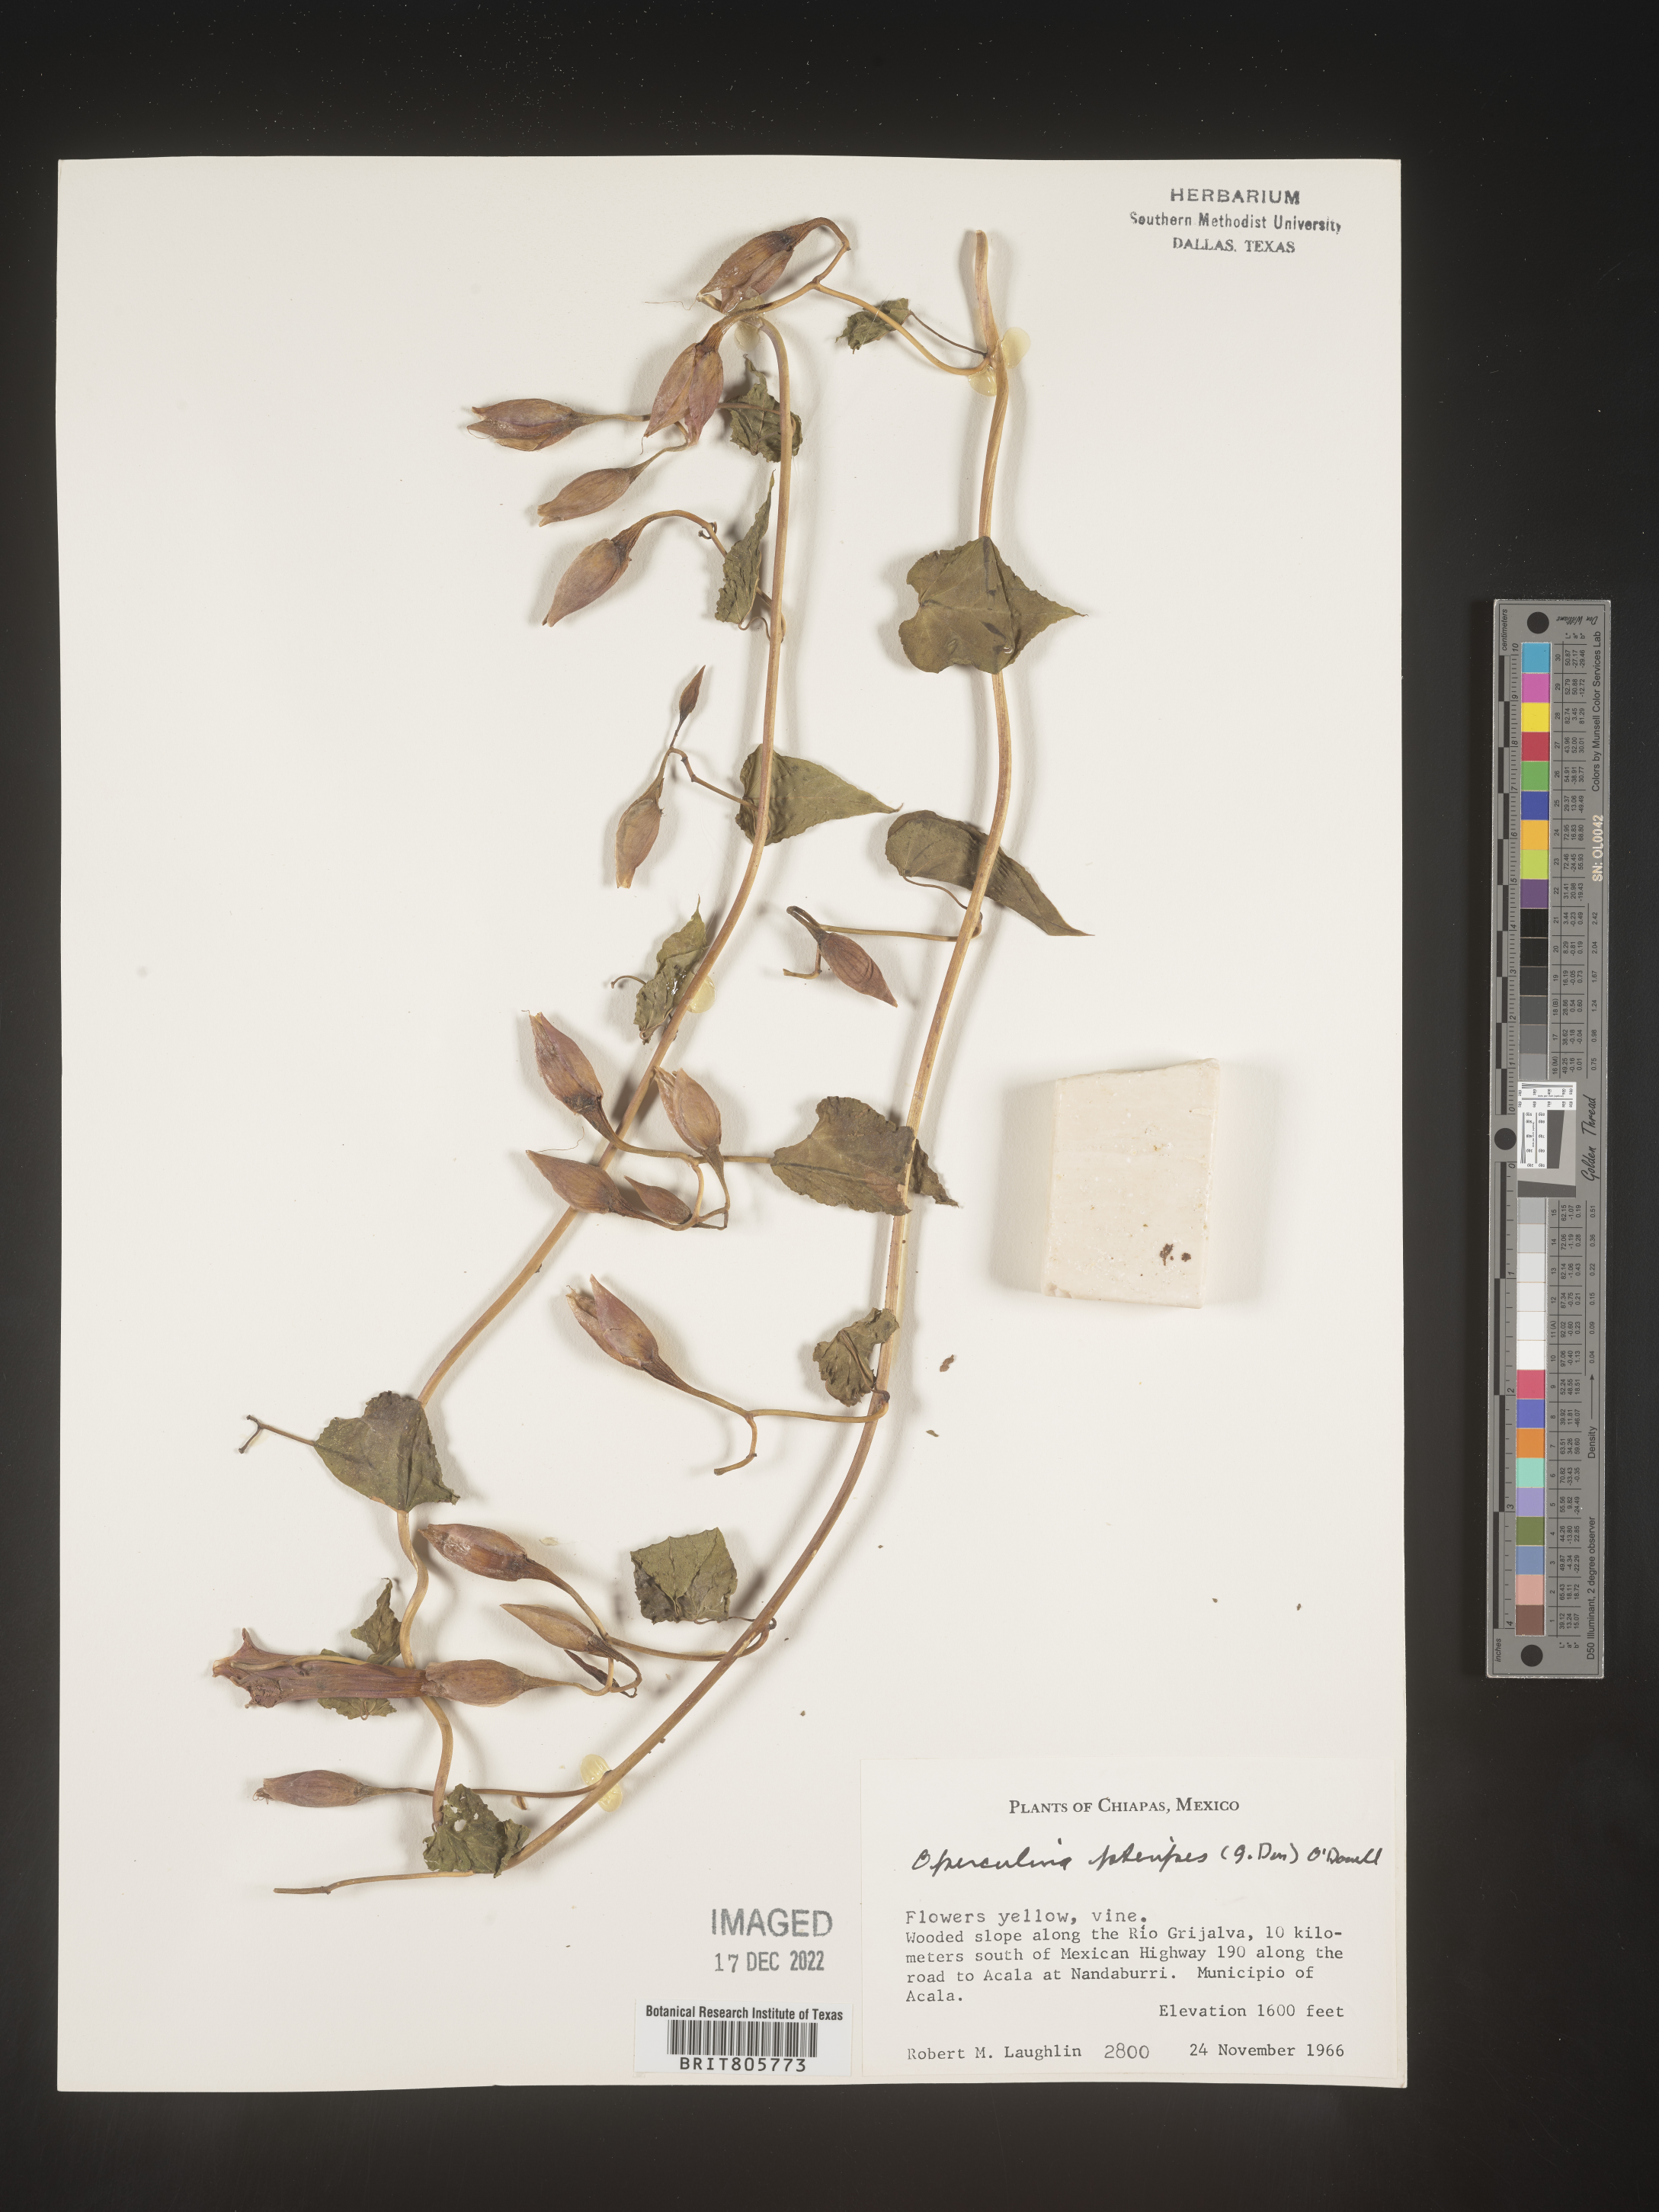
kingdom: Plantae
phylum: Tracheophyta
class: Magnoliopsida
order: Solanales
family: Convolvulaceae
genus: Operculina
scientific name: Operculina
